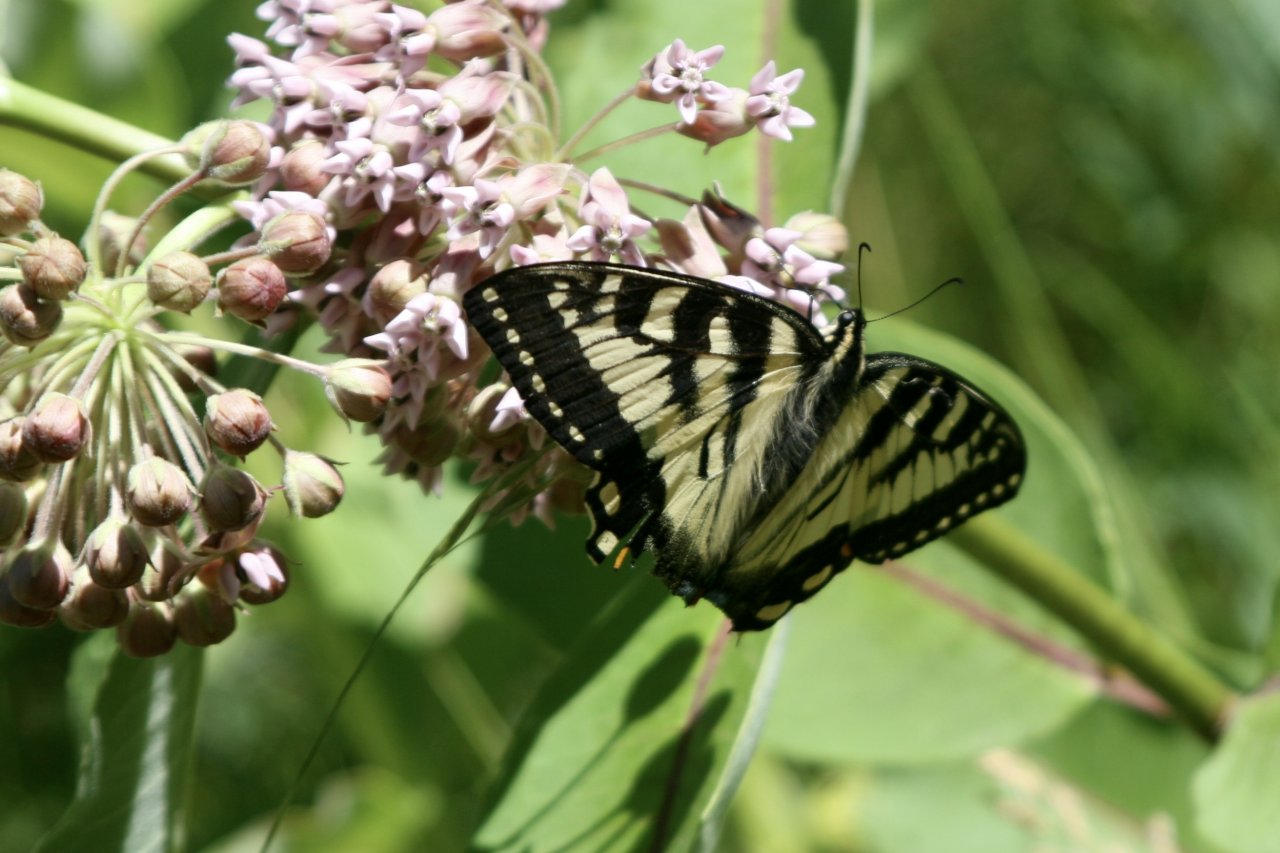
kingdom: Animalia
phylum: Arthropoda
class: Insecta
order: Lepidoptera
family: Papilionidae
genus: Pterourus
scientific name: Pterourus canadensis
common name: Canadian Tiger Swallowtail
